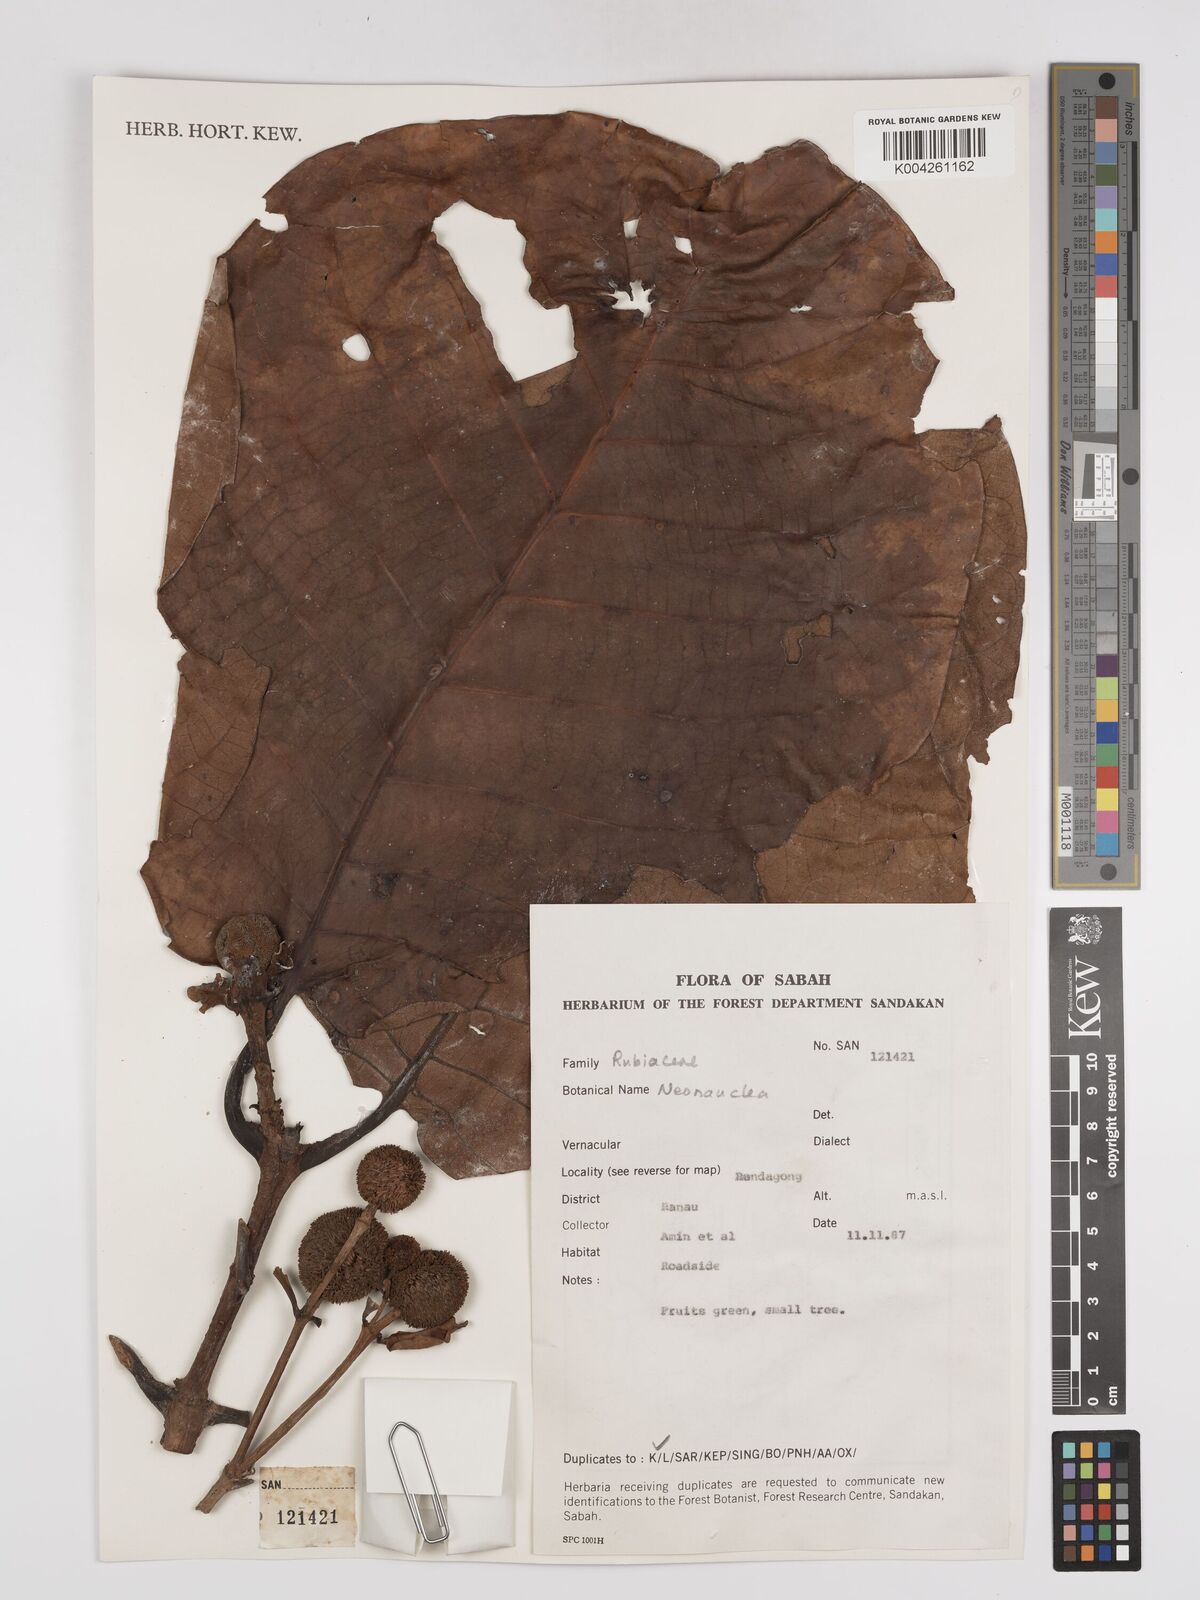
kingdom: Plantae
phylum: Tracheophyta
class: Magnoliopsida
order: Gentianales
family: Rubiaceae
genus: Neonauclea
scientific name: Neonauclea
